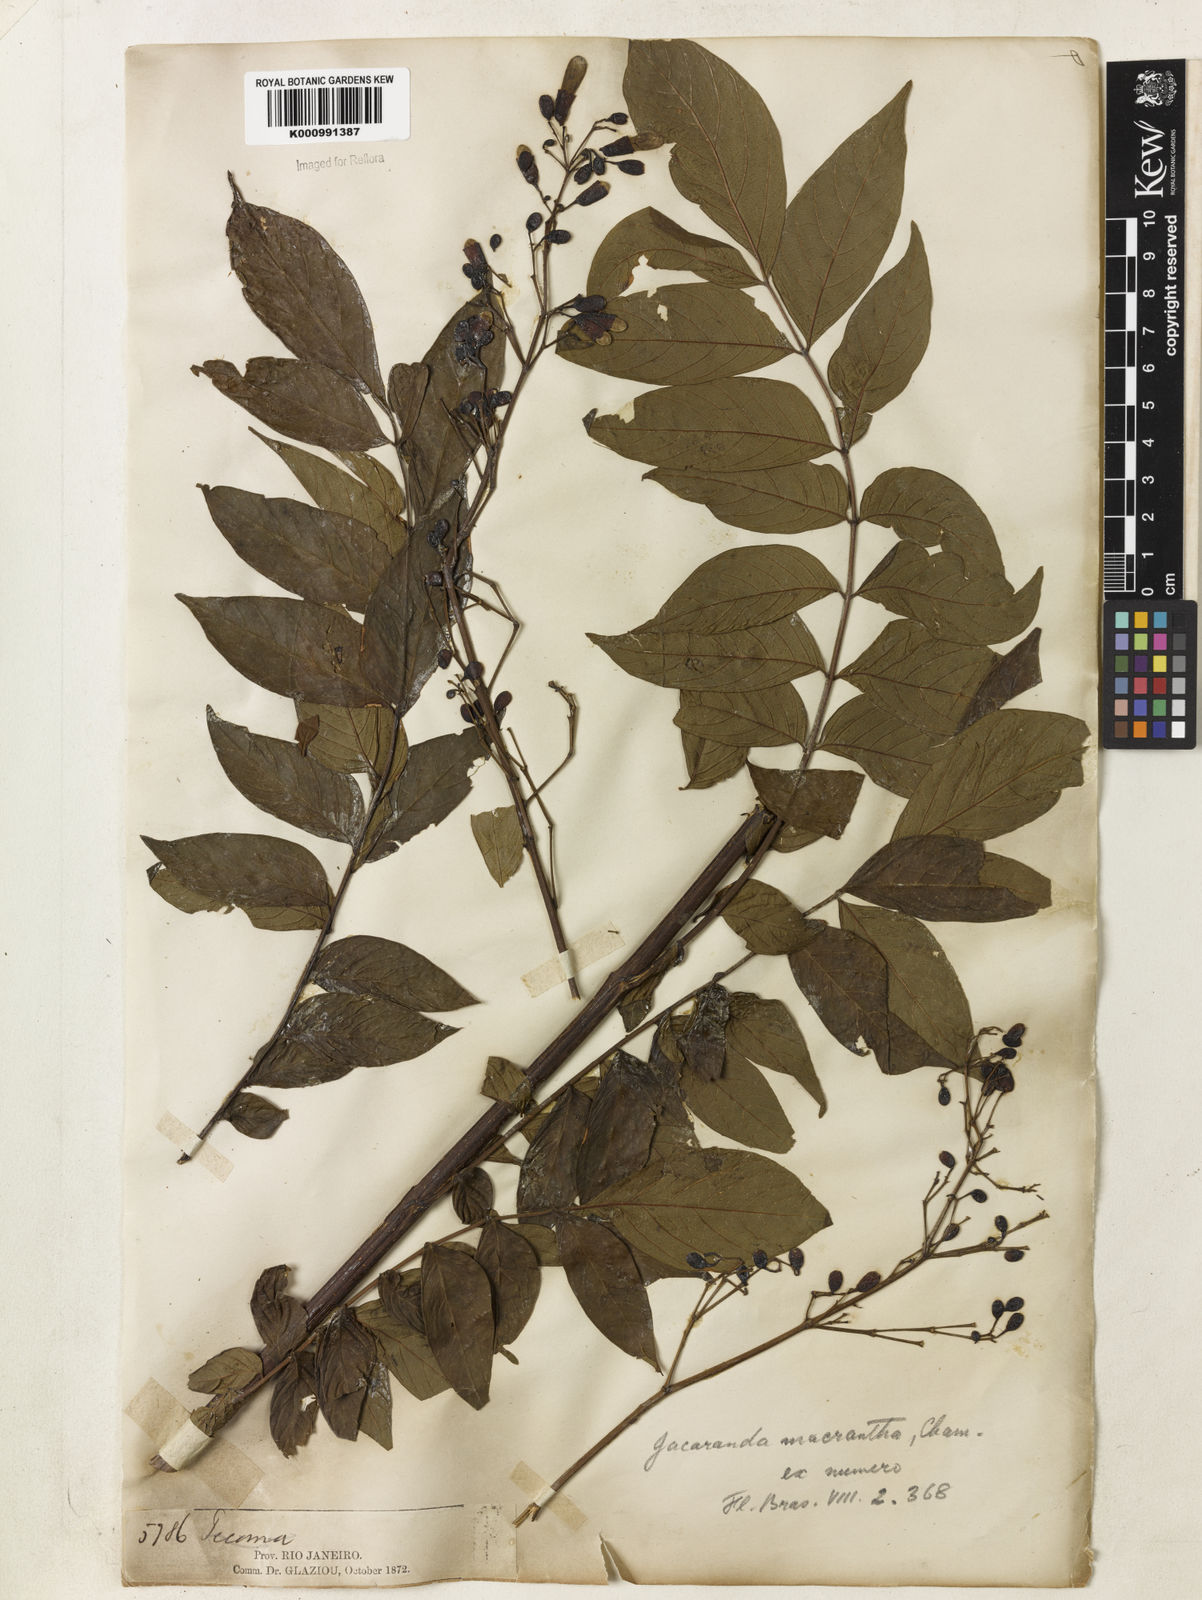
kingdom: Plantae
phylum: Tracheophyta
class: Magnoliopsida
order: Lamiales
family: Bignoniaceae
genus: Jacaranda
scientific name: Jacaranda micrantha
